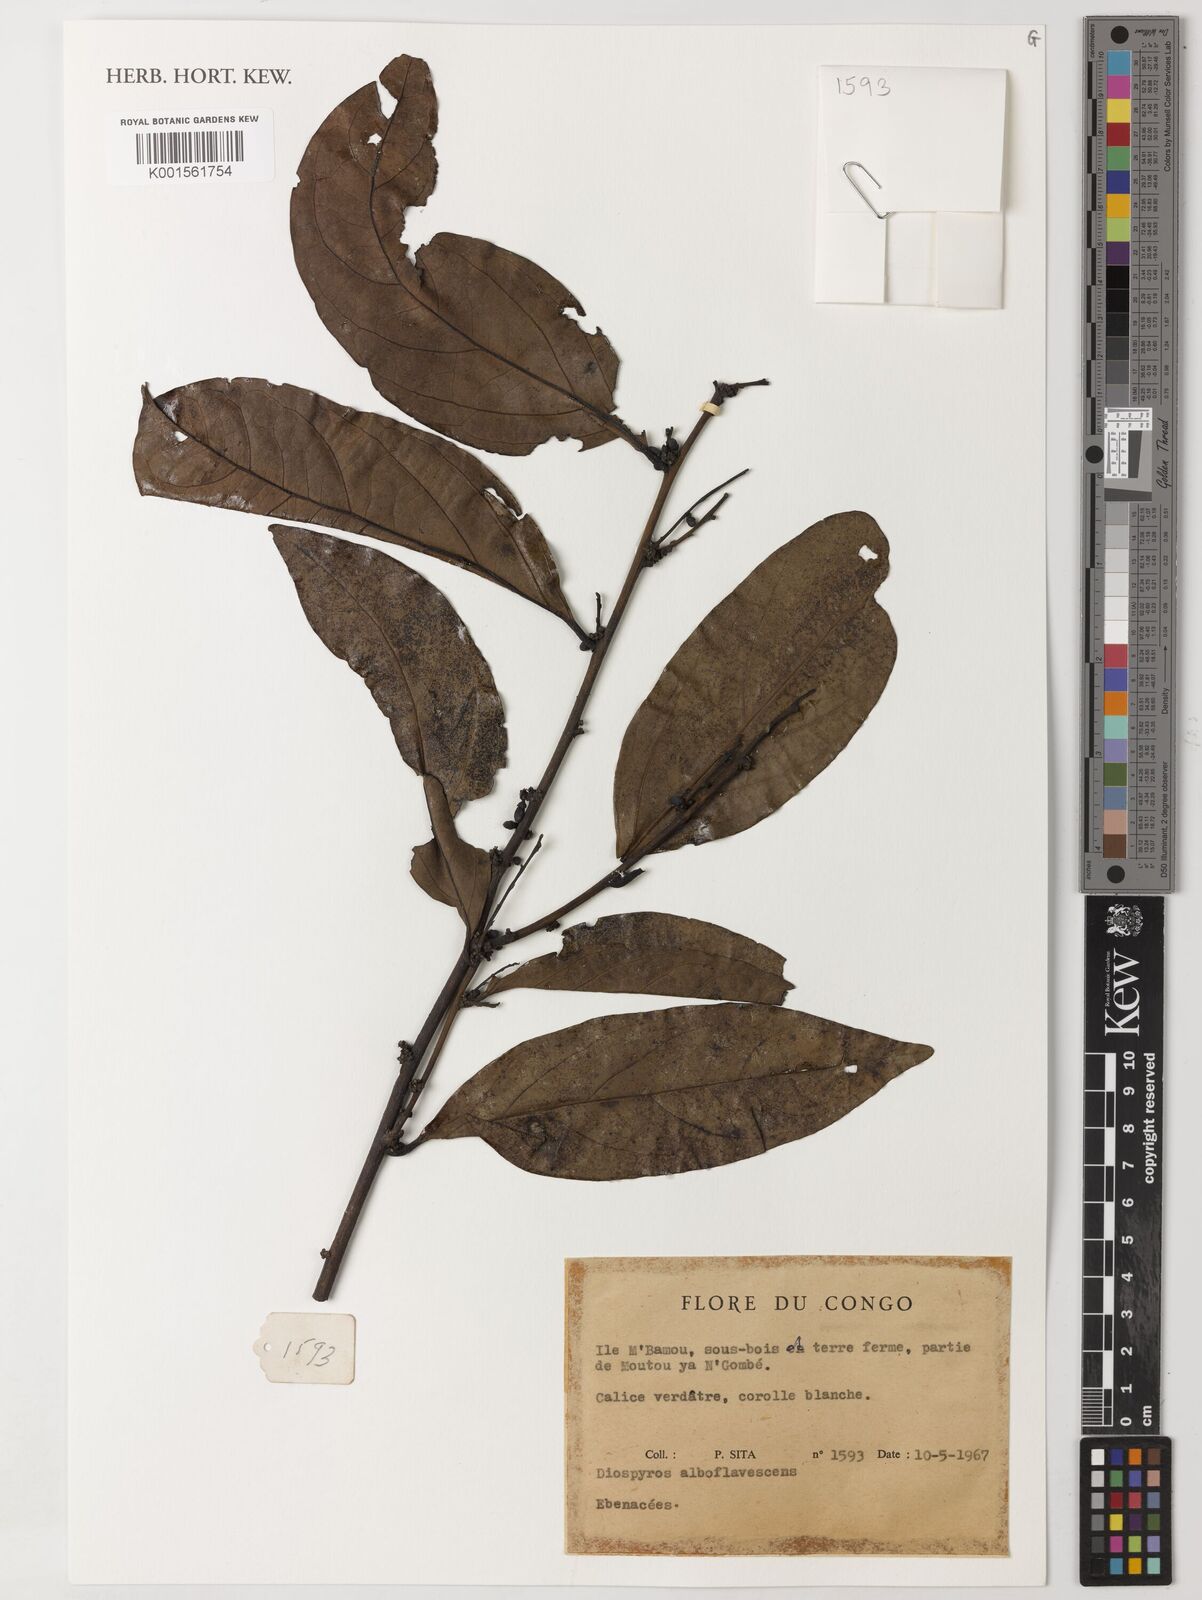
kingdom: Plantae
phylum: Tracheophyta
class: Magnoliopsida
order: Ericales
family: Ebenaceae
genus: Diospyros
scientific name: Diospyros alboflavescens
